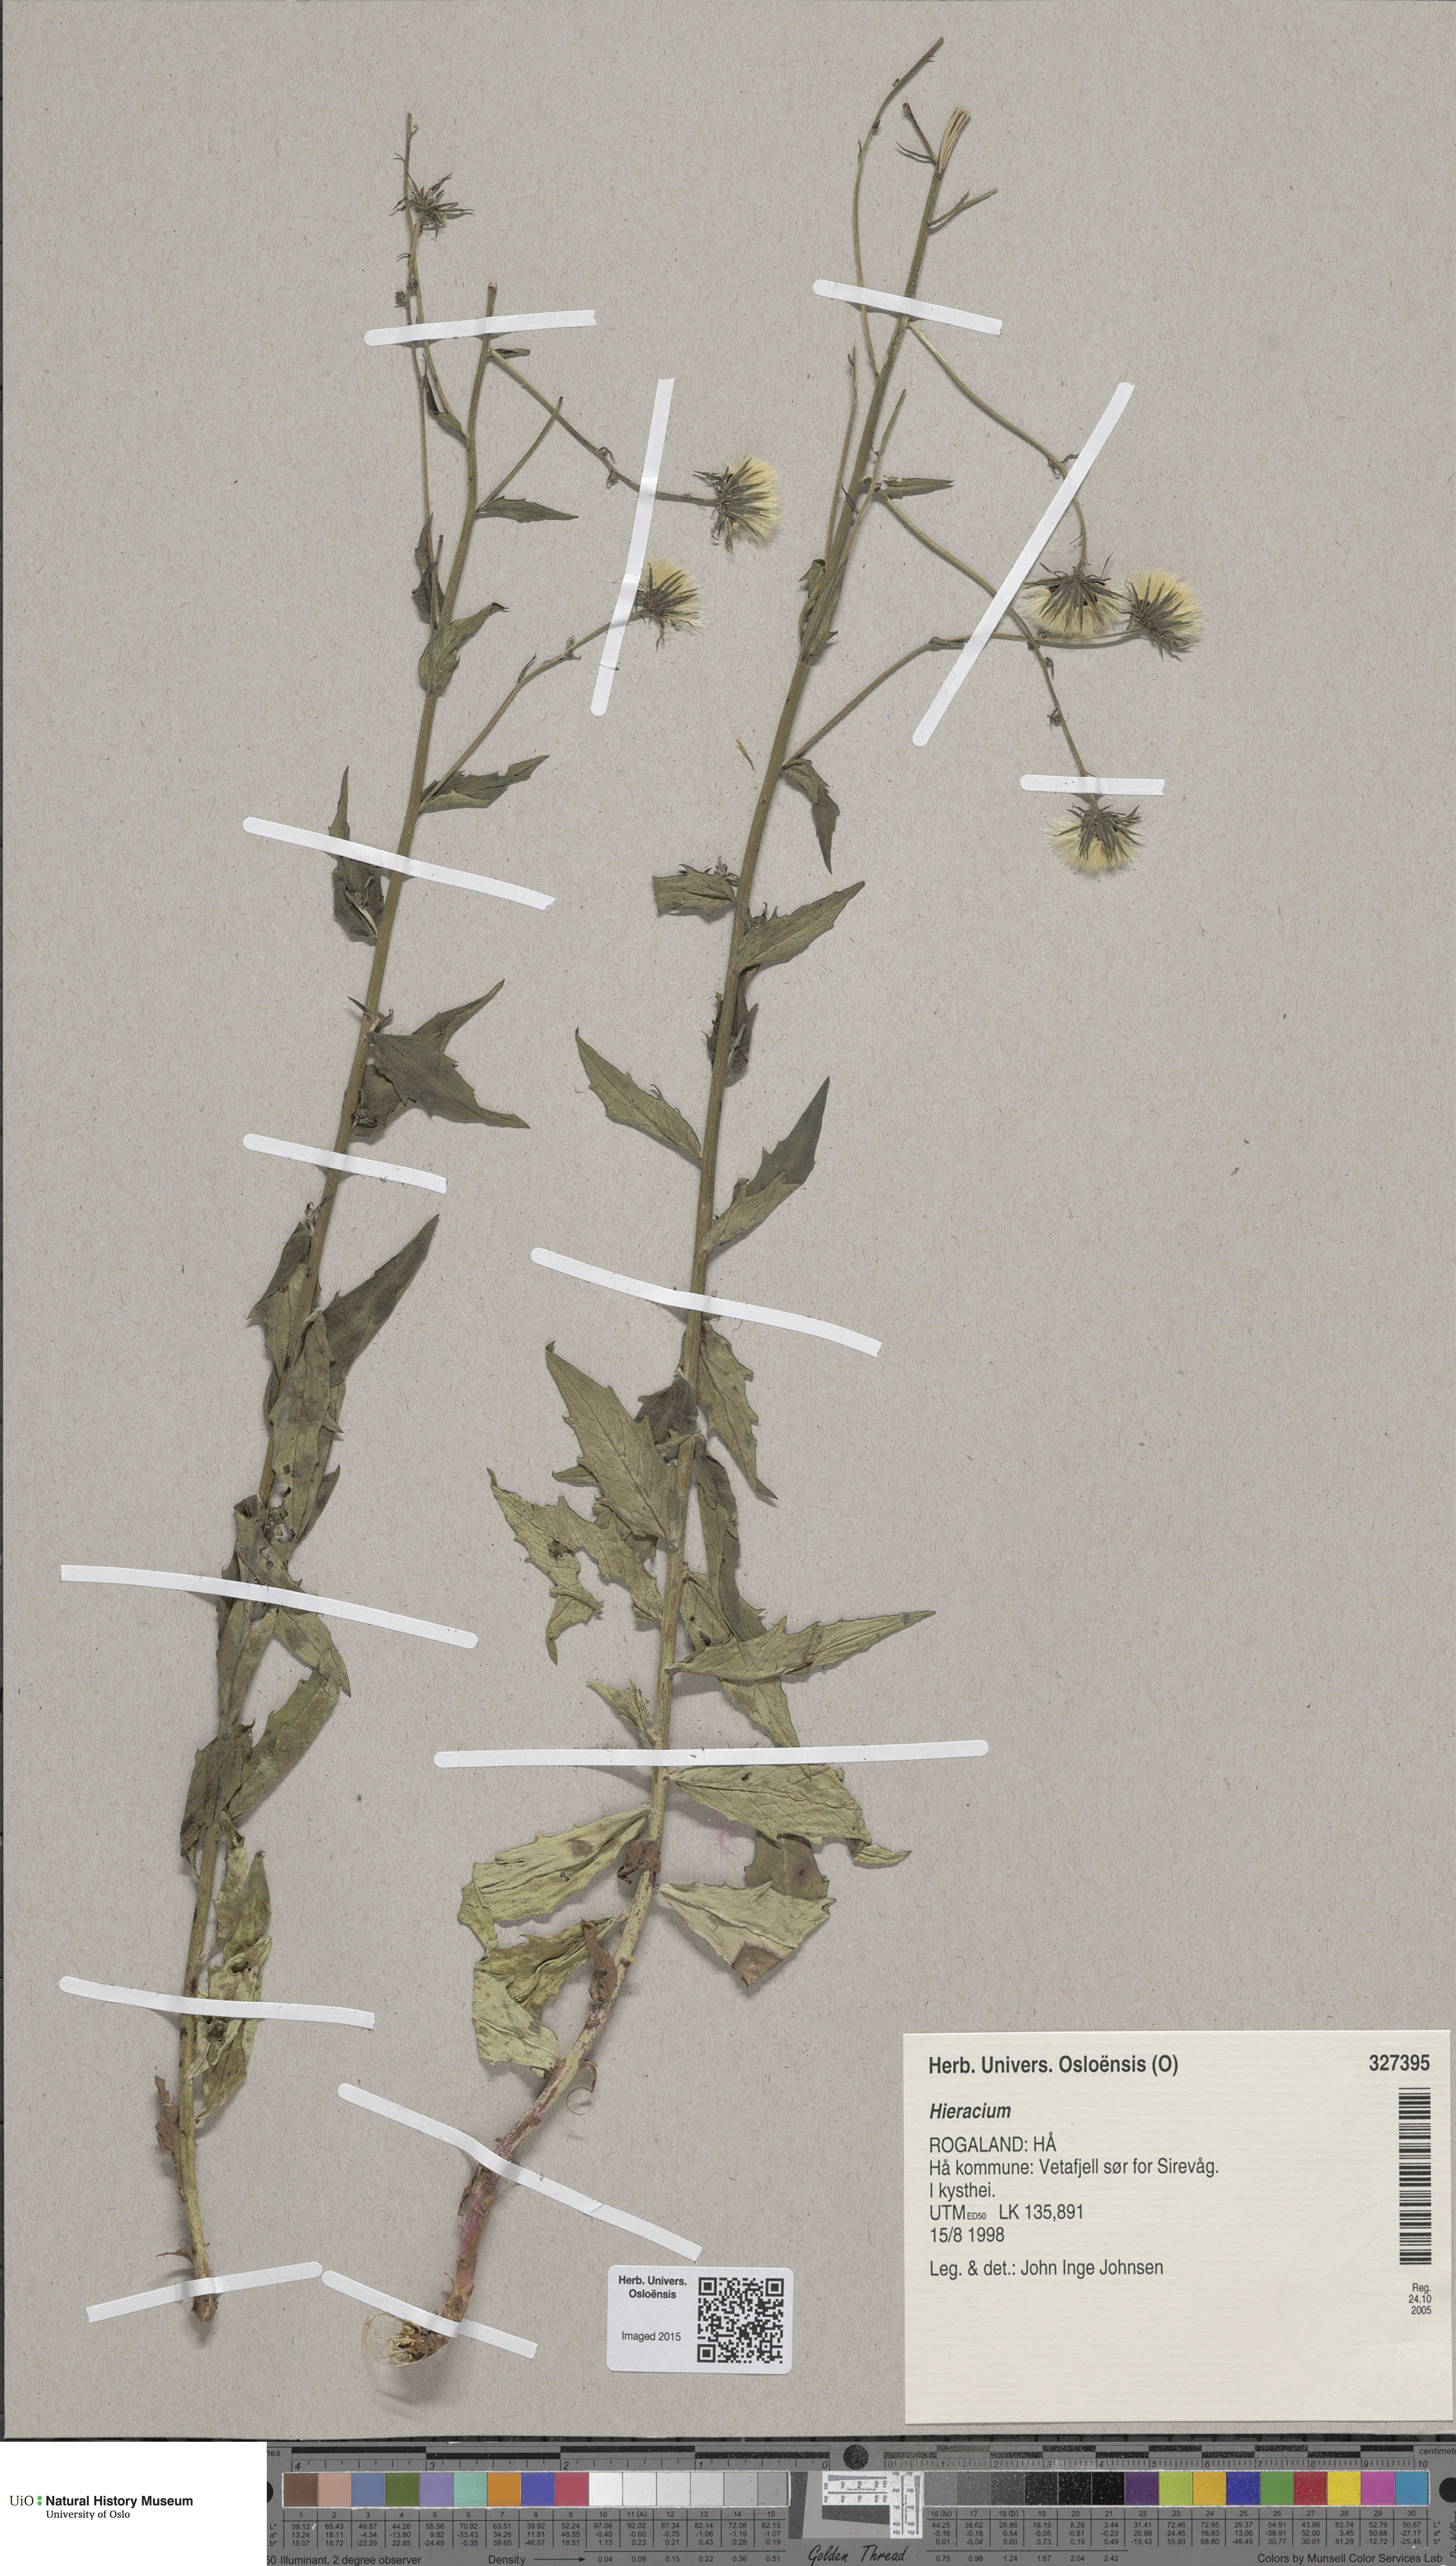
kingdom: Plantae
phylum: Tracheophyta
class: Magnoliopsida
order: Asterales
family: Asteraceae
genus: Hieracium
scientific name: Hieracium
